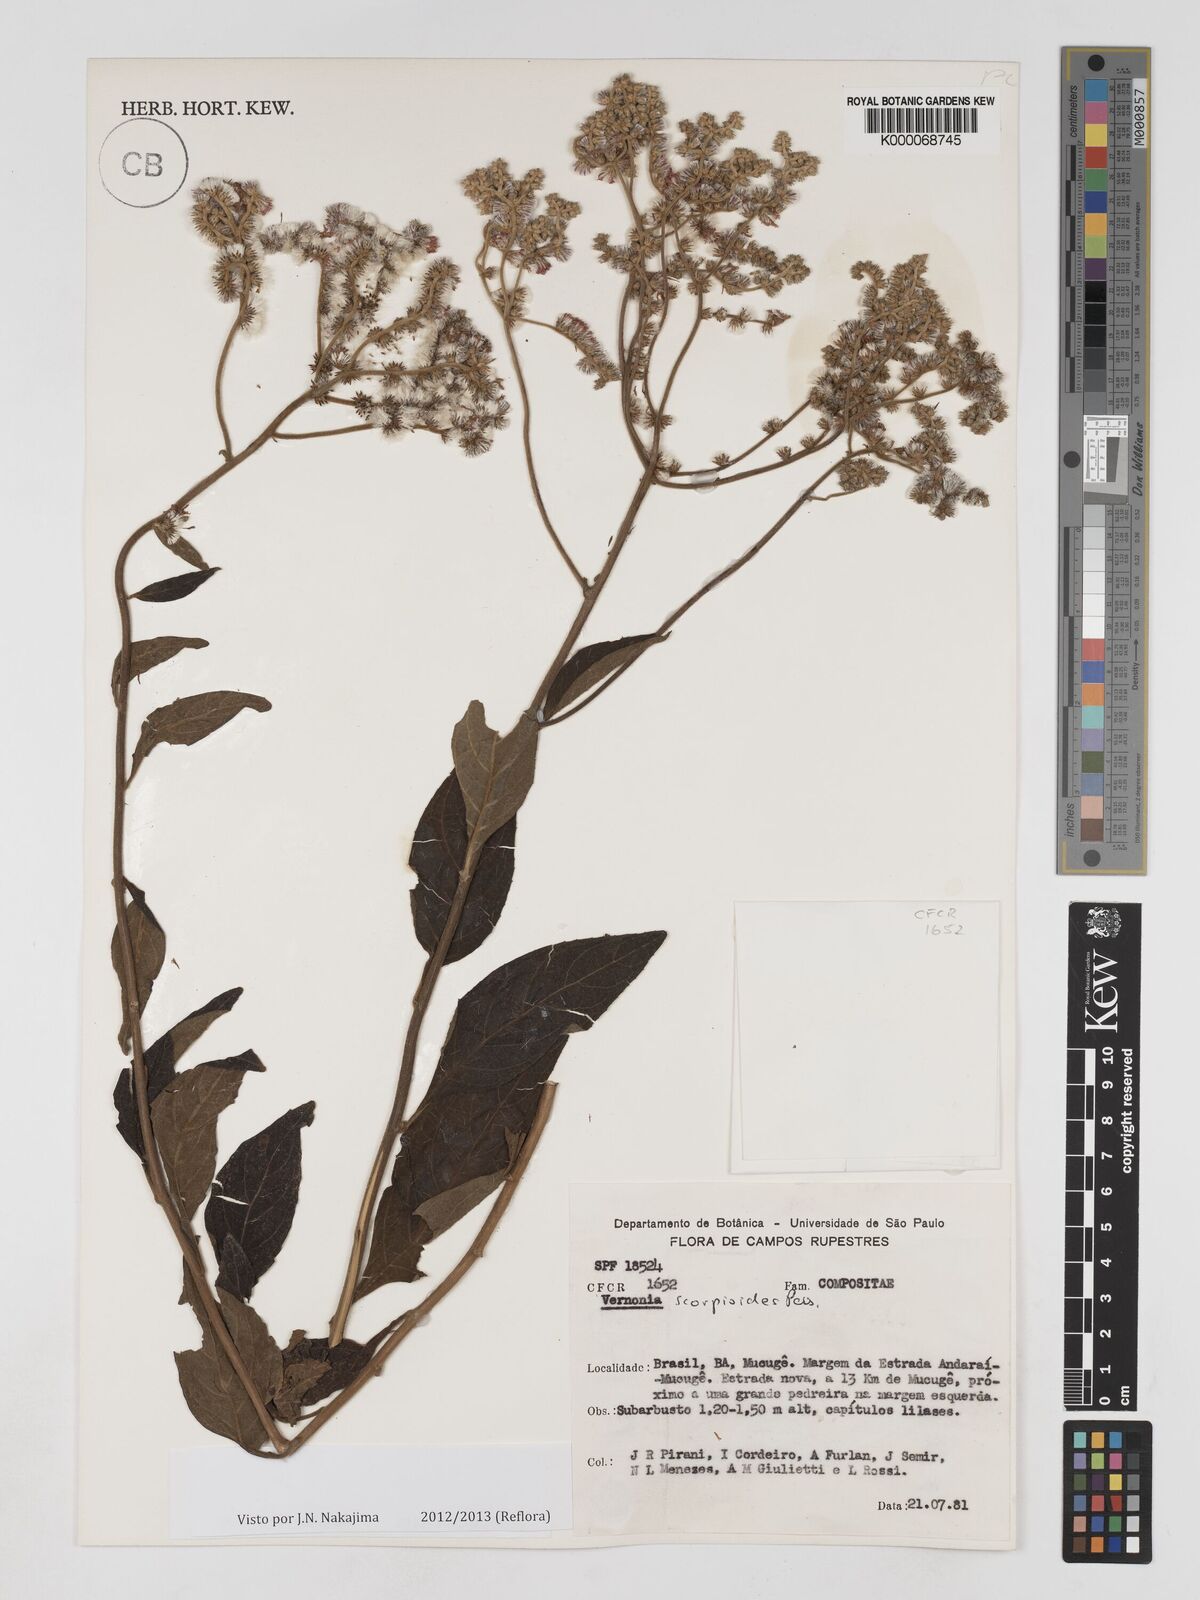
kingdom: Plantae
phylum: Tracheophyta
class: Magnoliopsida
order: Asterales
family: Asteraceae
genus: Cyrtocymura
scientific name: Cyrtocymura scorpioides
